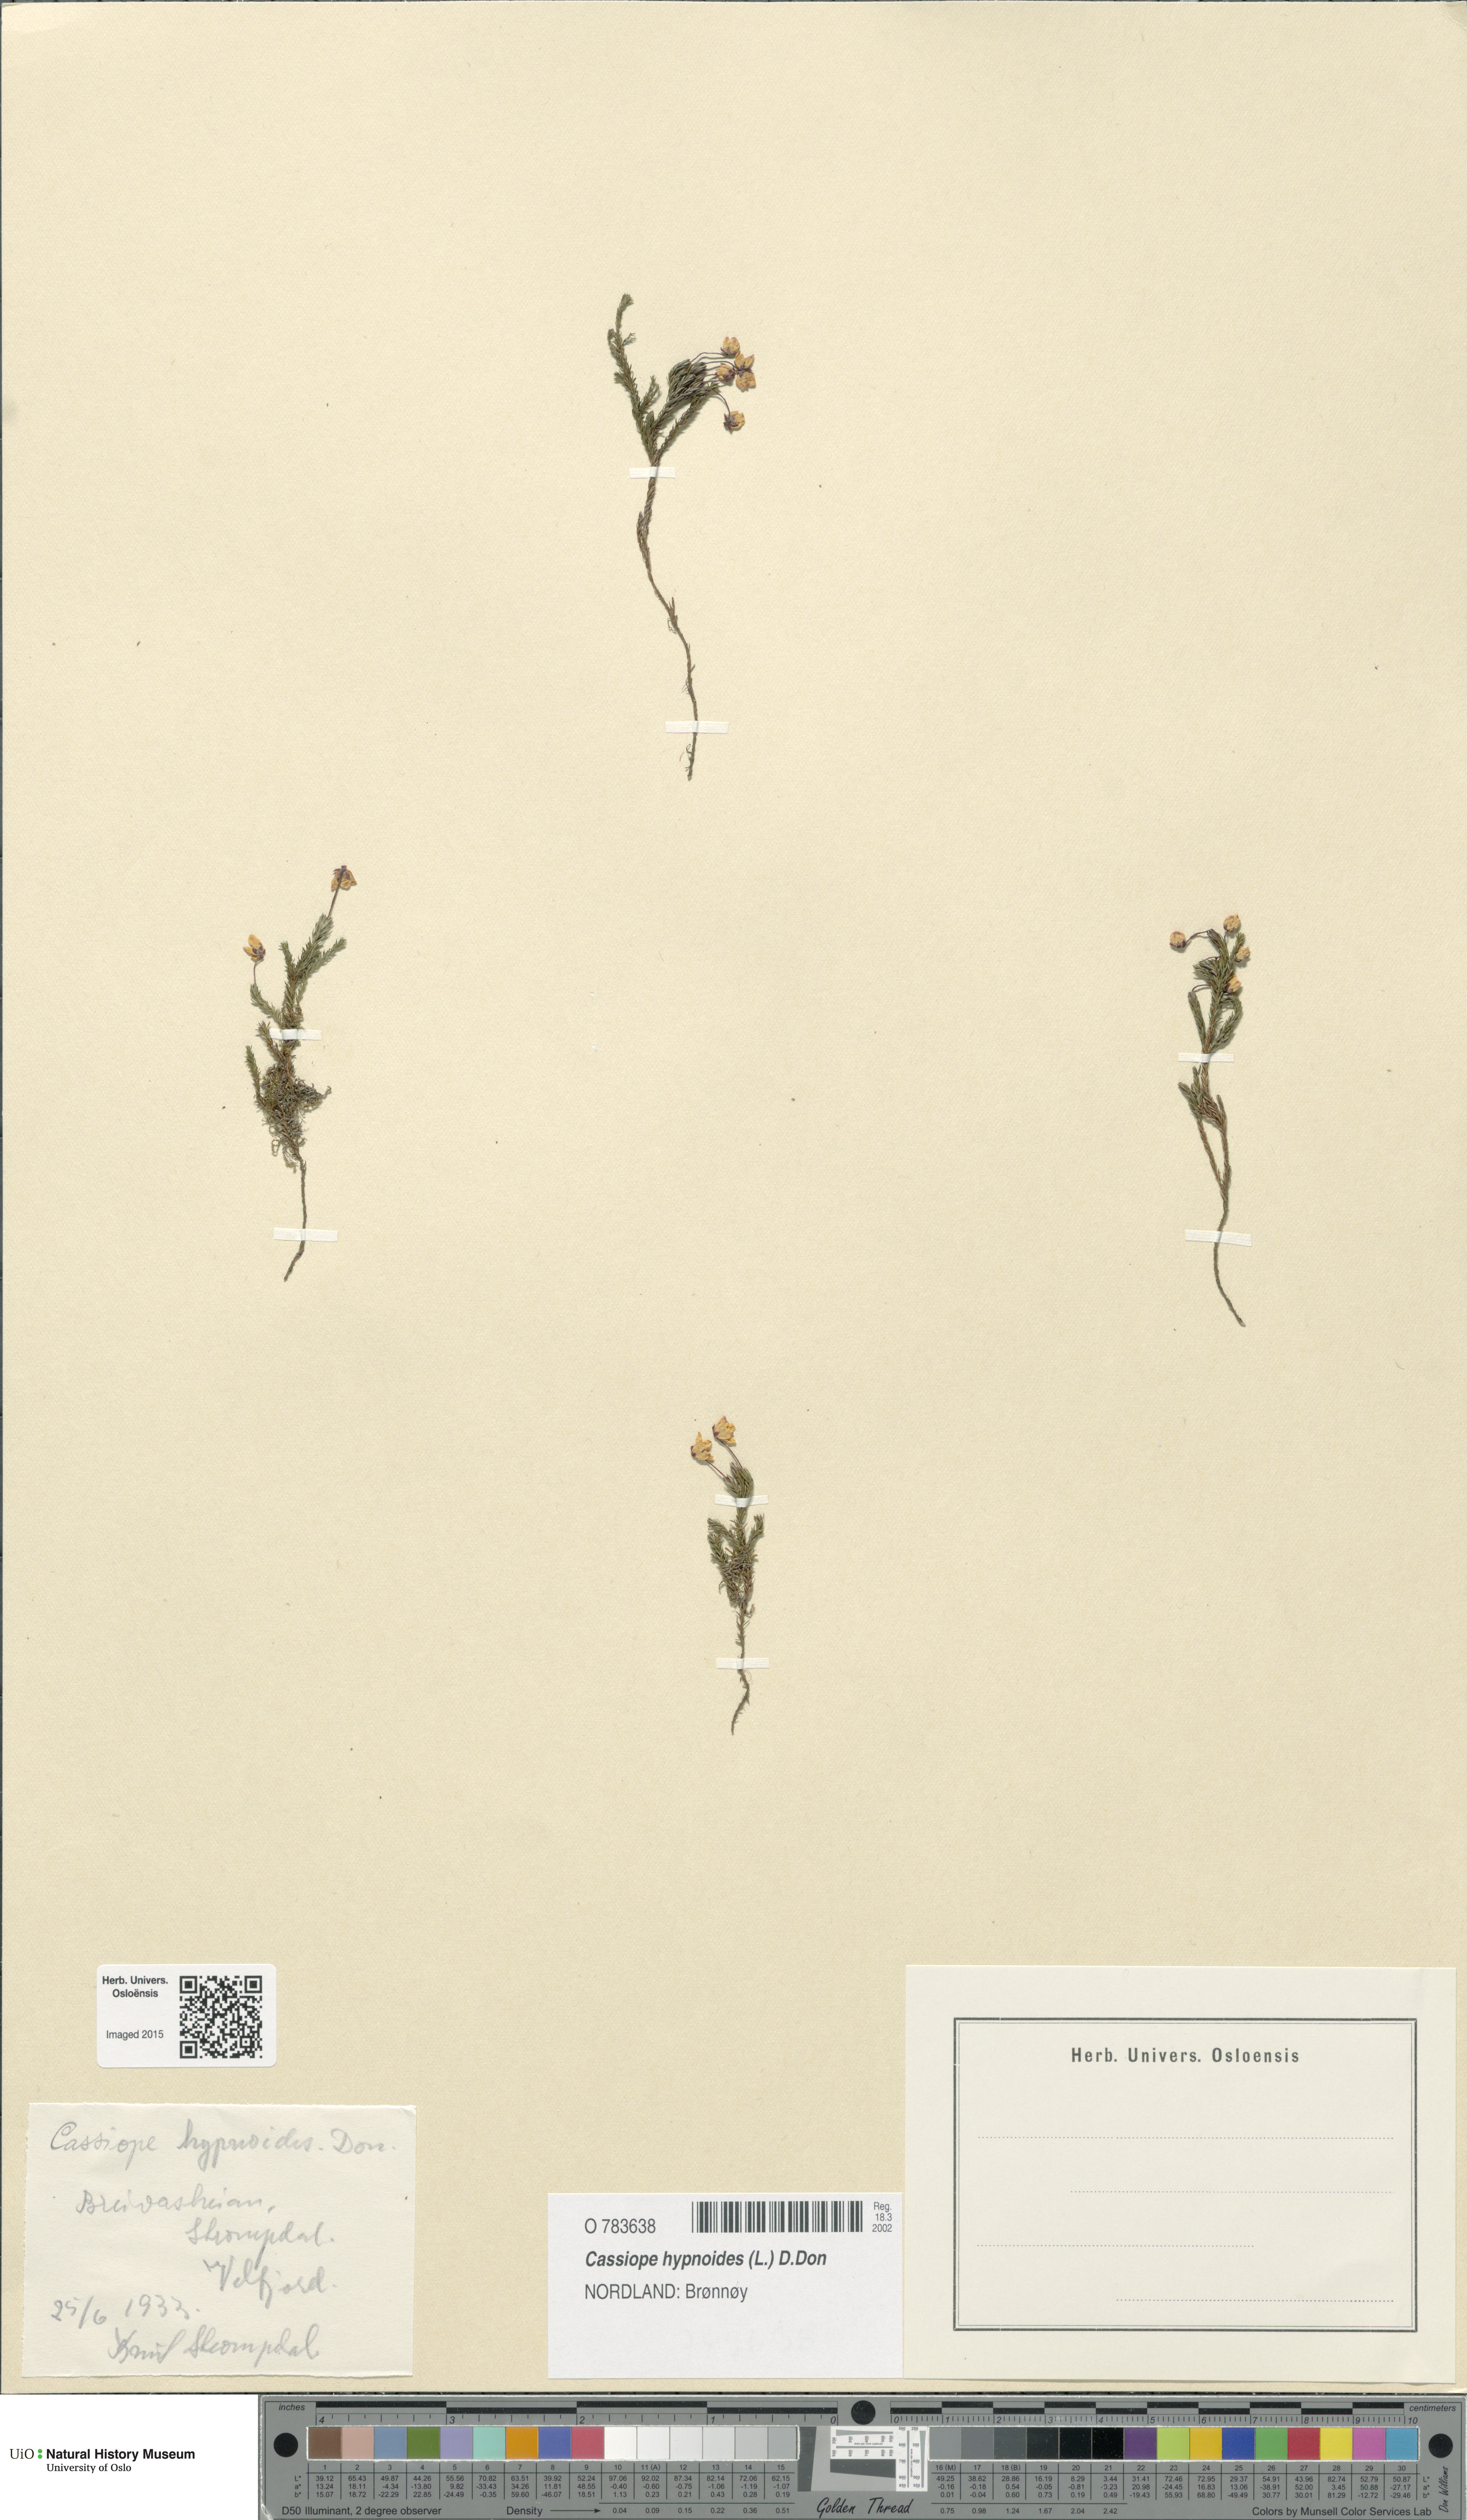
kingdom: Plantae
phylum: Tracheophyta
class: Magnoliopsida
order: Ericales
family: Ericaceae
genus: Harrimanella
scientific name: Harrimanella hypnoides
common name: Moss bell heather
